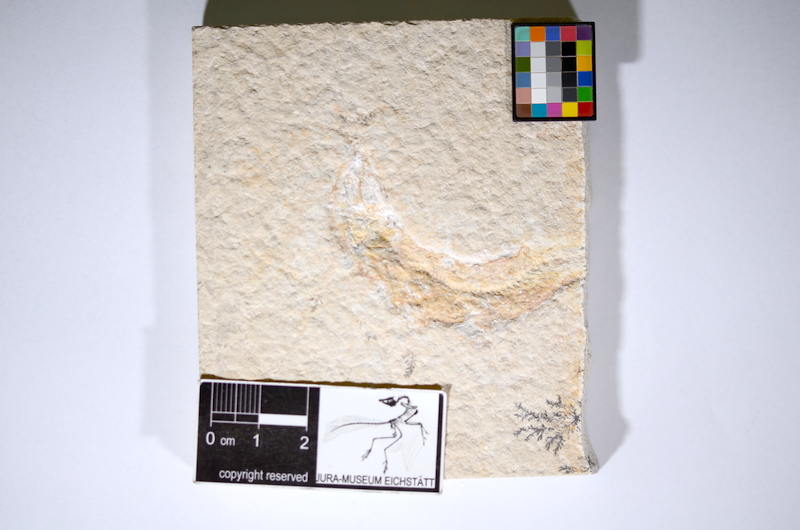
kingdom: Animalia
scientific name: Animalia
